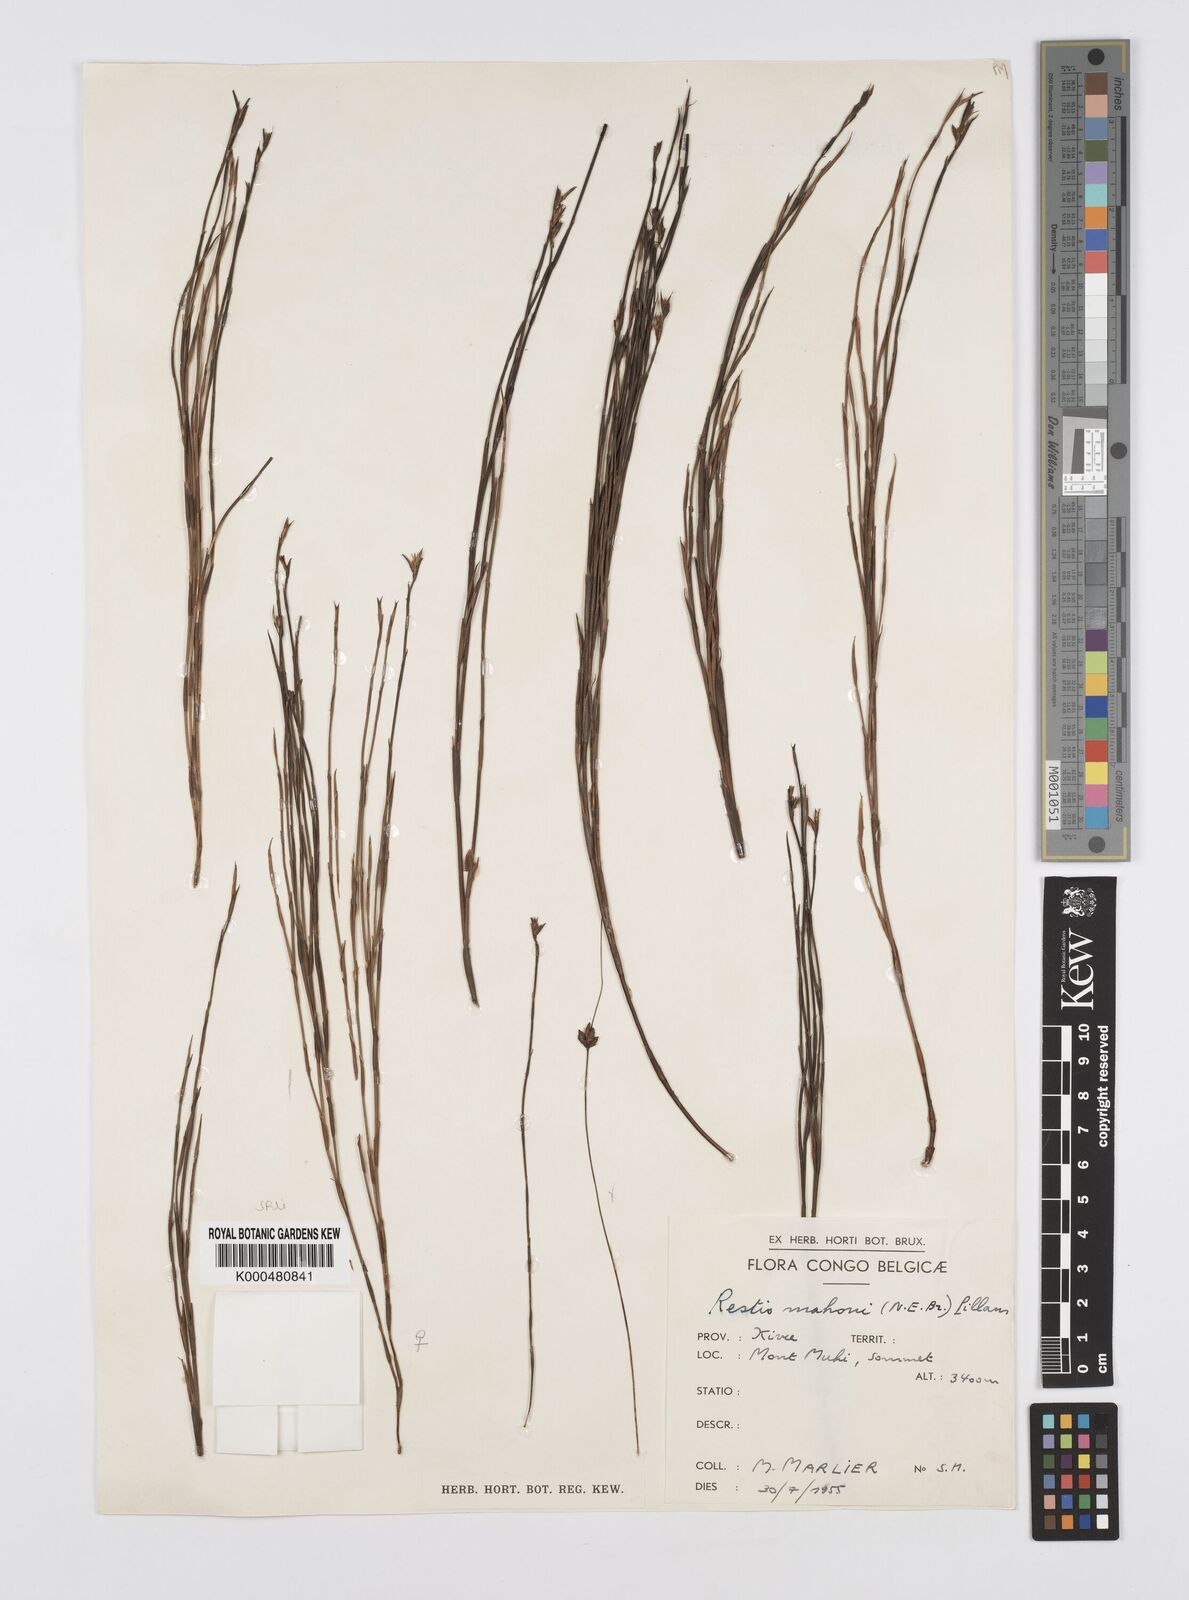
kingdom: Plantae
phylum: Tracheophyta
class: Liliopsida
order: Poales
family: Restionaceae
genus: Platycaulos
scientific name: Platycaulos mahonii
